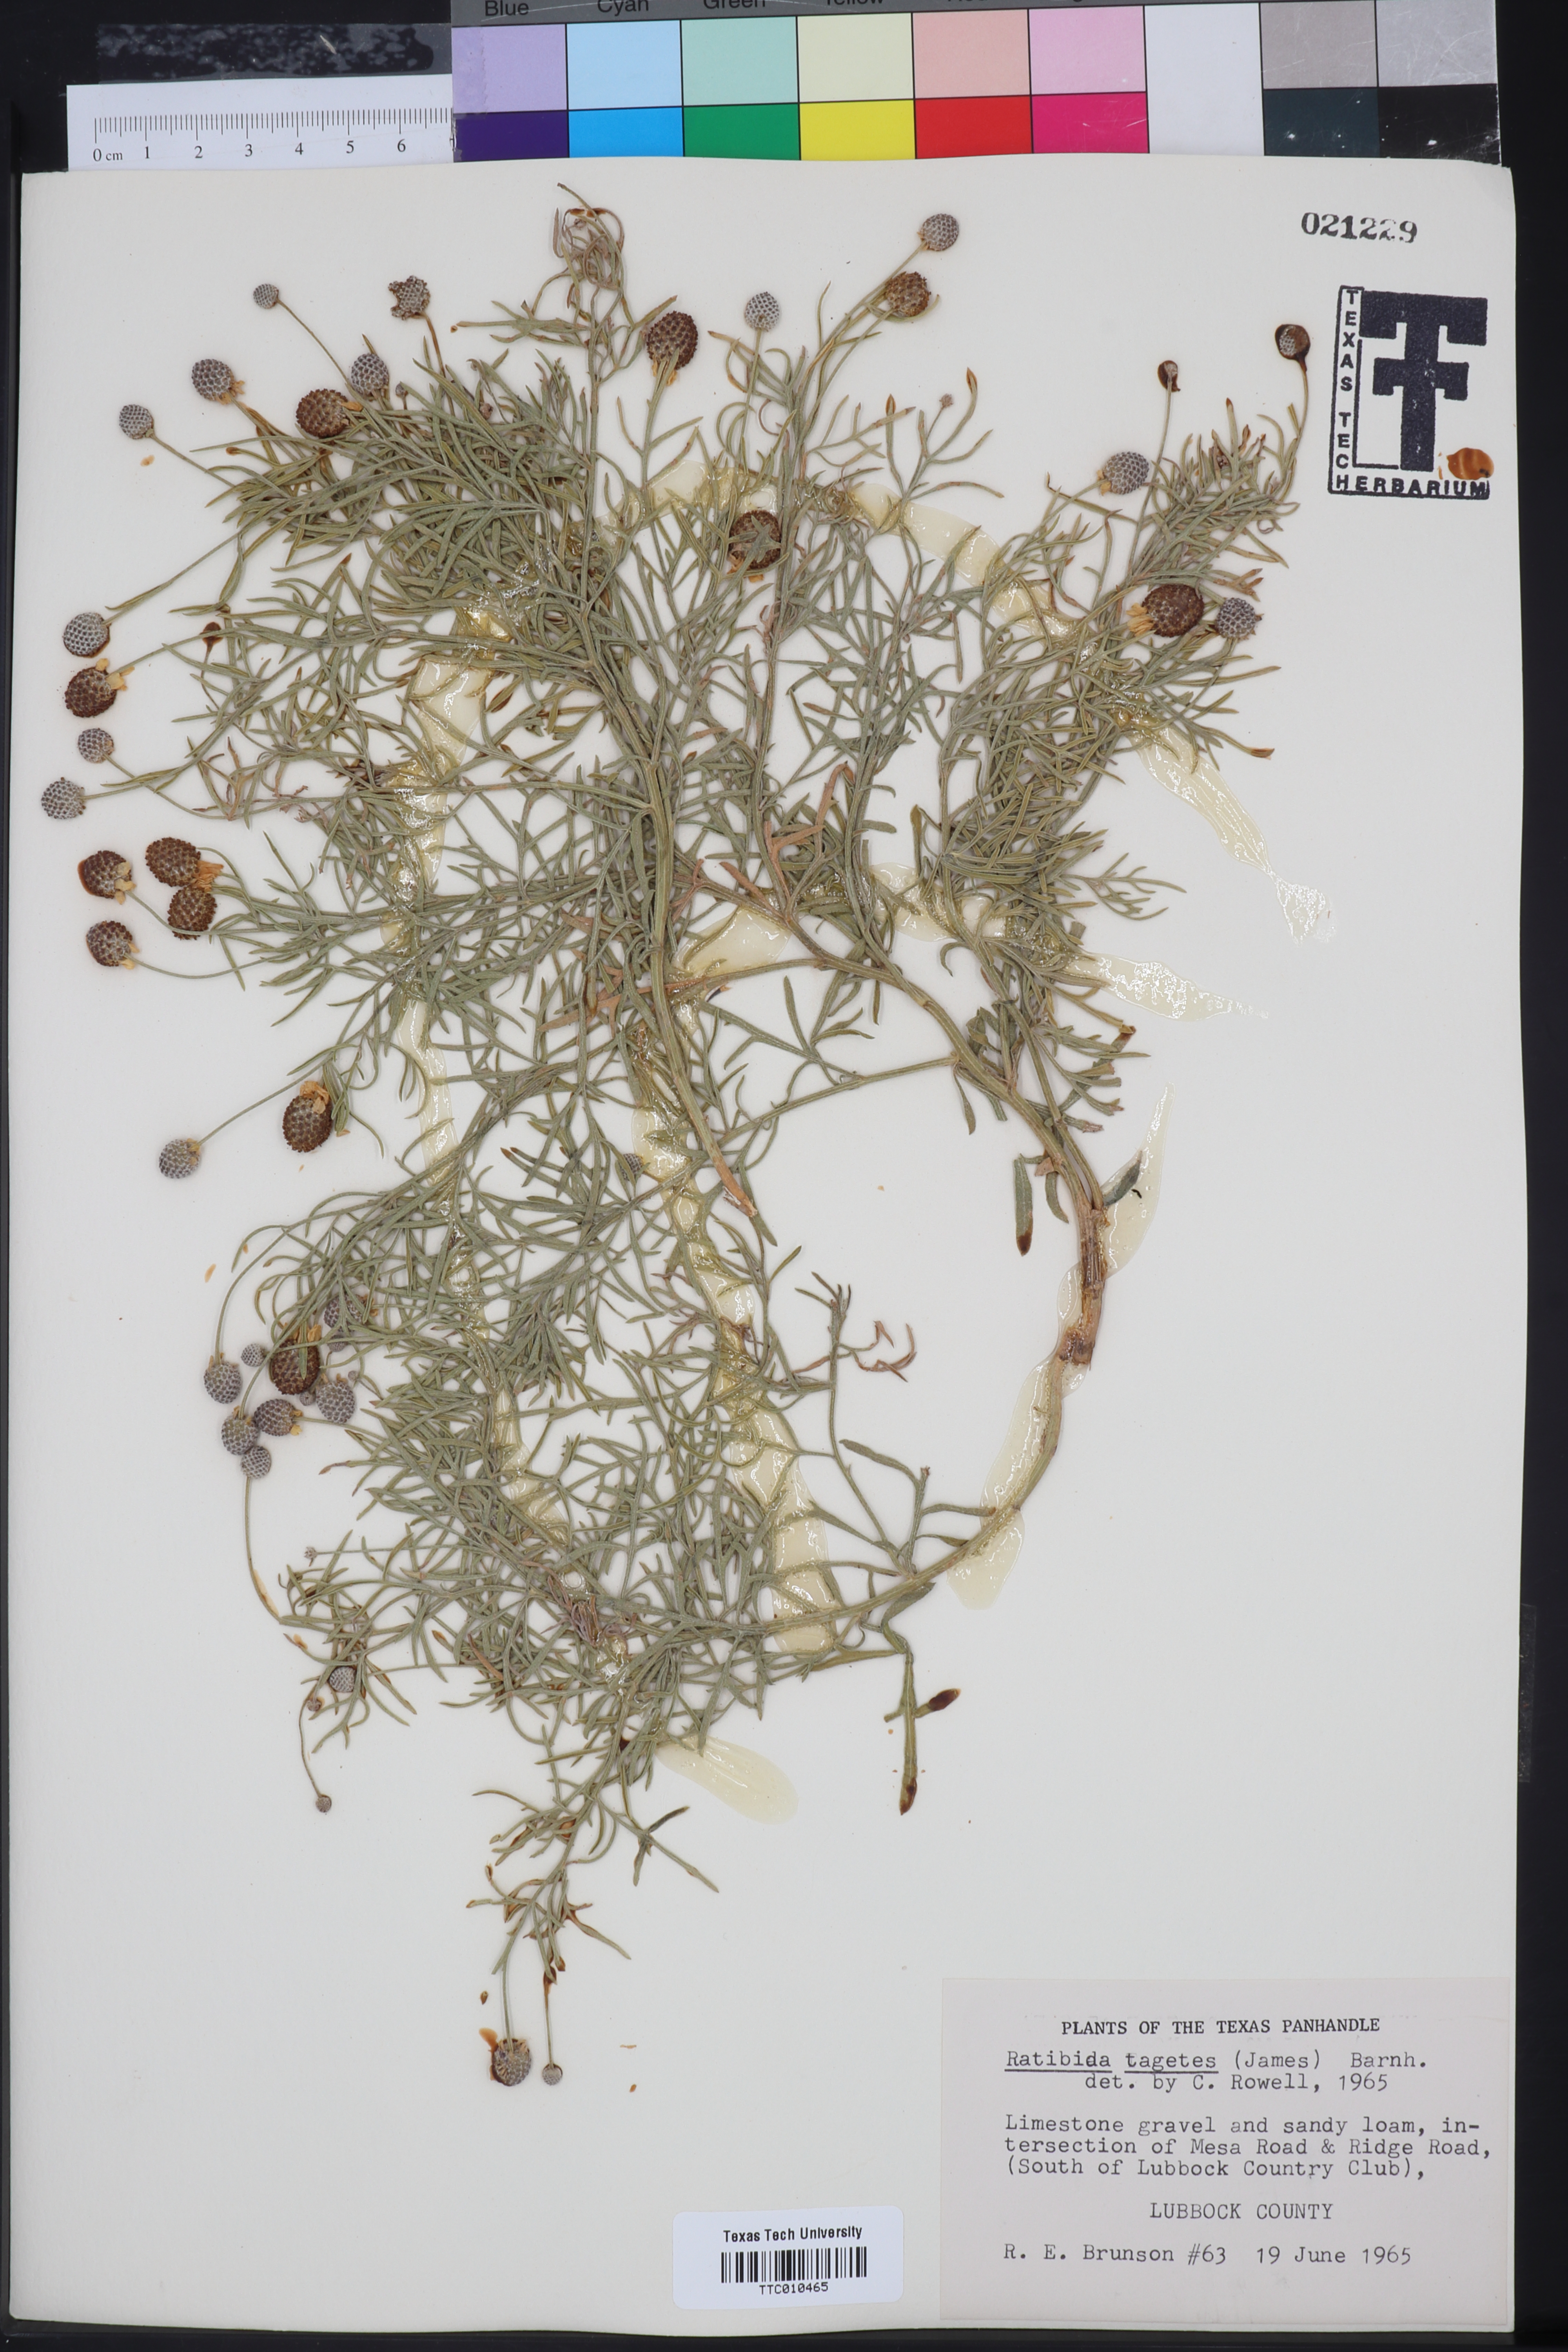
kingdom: Plantae
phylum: Tracheophyta
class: Magnoliopsida
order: Asterales
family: Asteraceae
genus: Ratibida
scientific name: Ratibida tagetes
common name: Green mexican-hat
